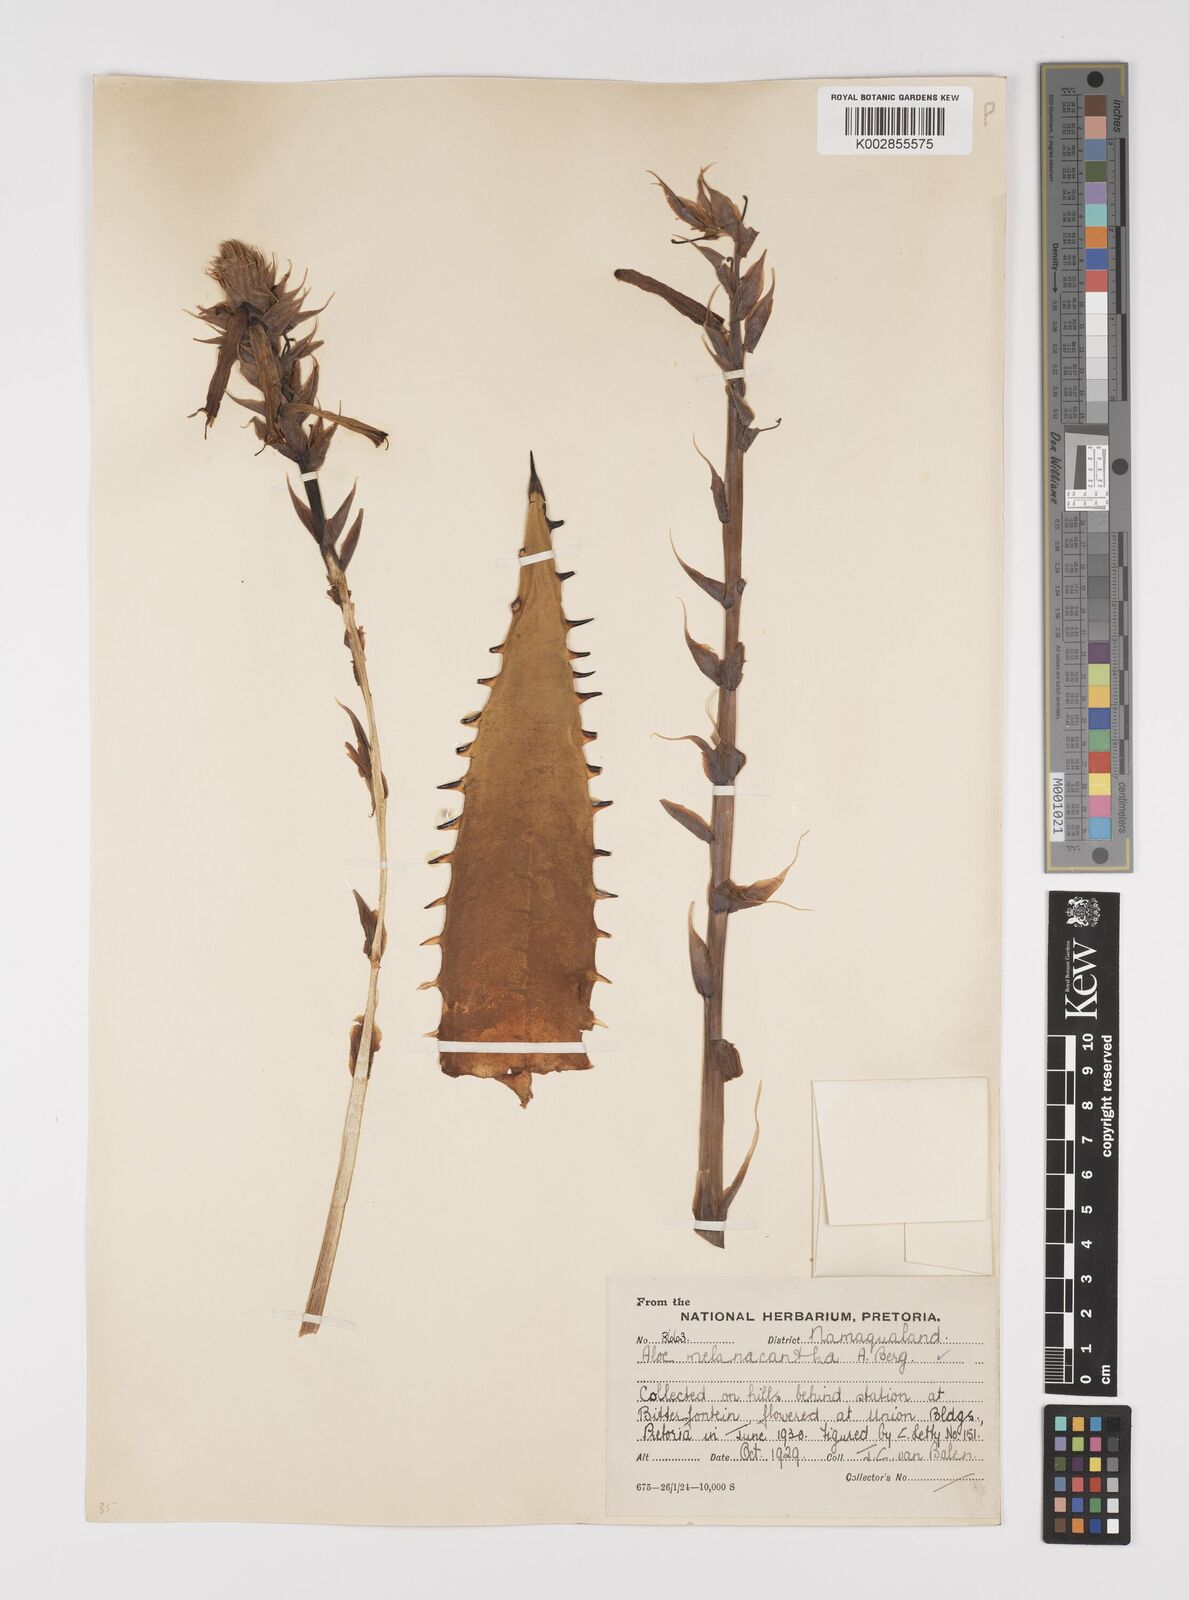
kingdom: Plantae
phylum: Tracheophyta
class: Liliopsida
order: Asparagales
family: Asphodelaceae
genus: Aloe
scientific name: Aloe melanacantha
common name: Black thorn aloe
